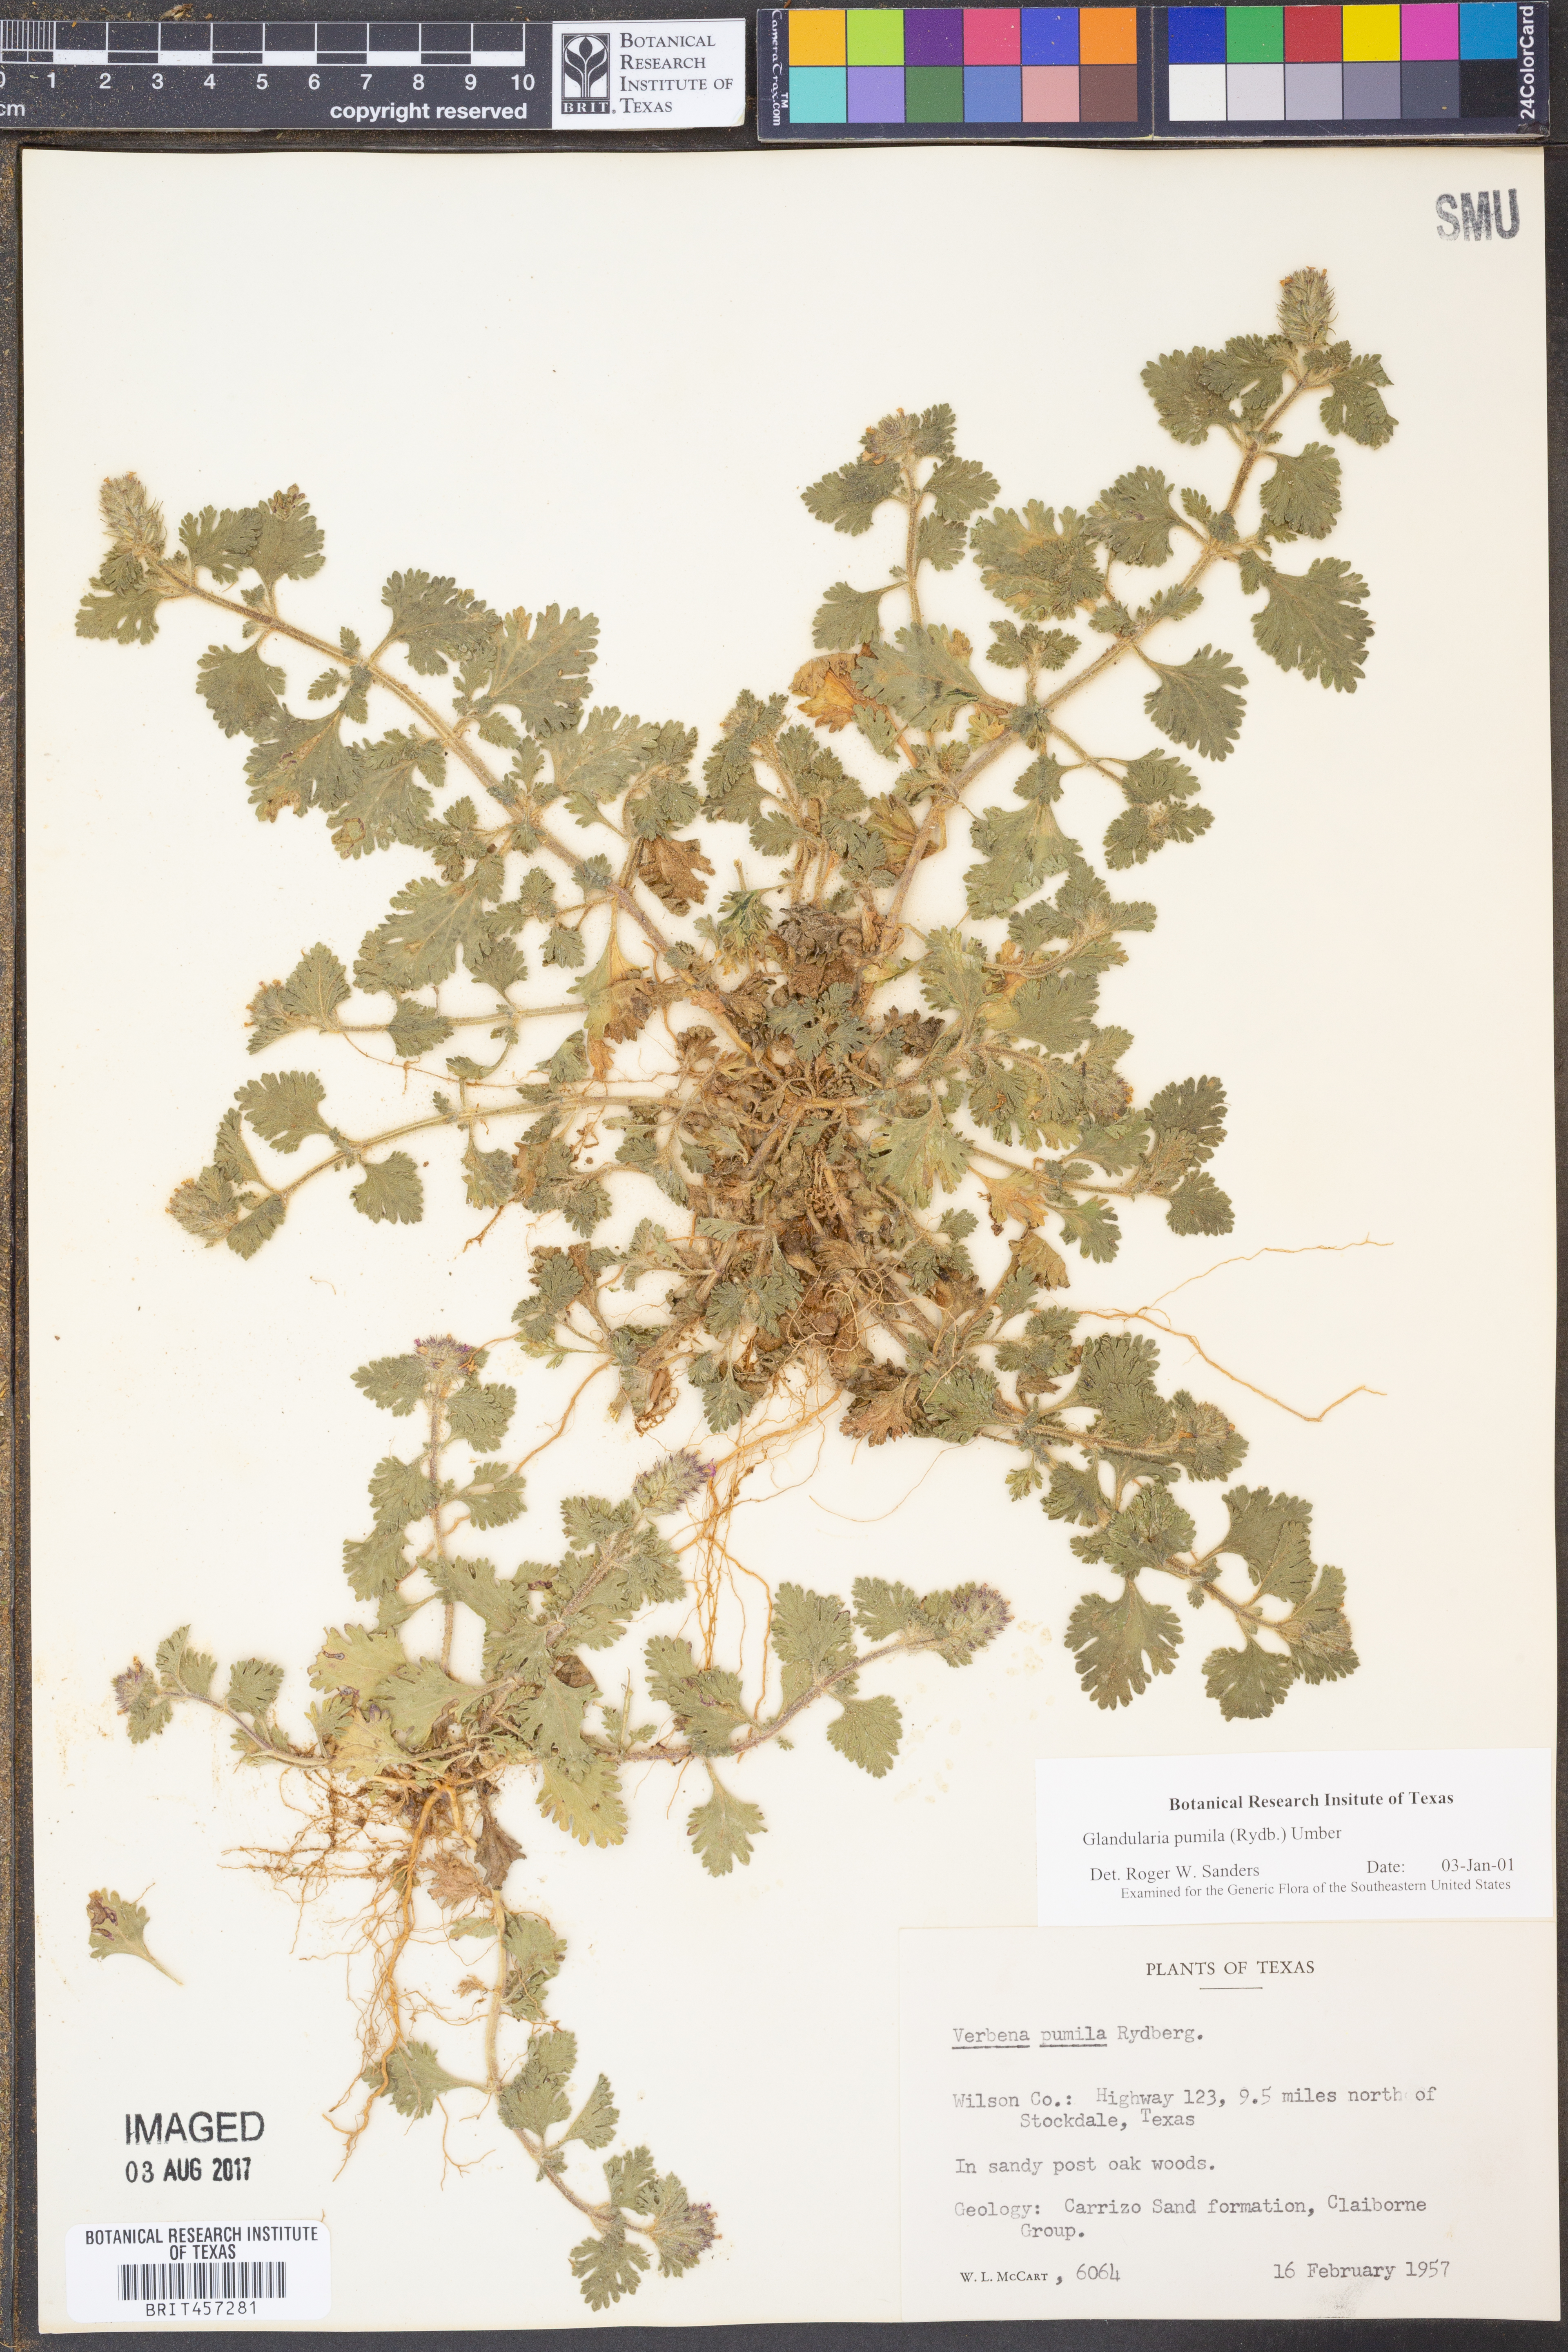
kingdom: Plantae
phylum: Tracheophyta
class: Magnoliopsida
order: Lamiales
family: Verbenaceae
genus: Verbena
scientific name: Verbena pumila
